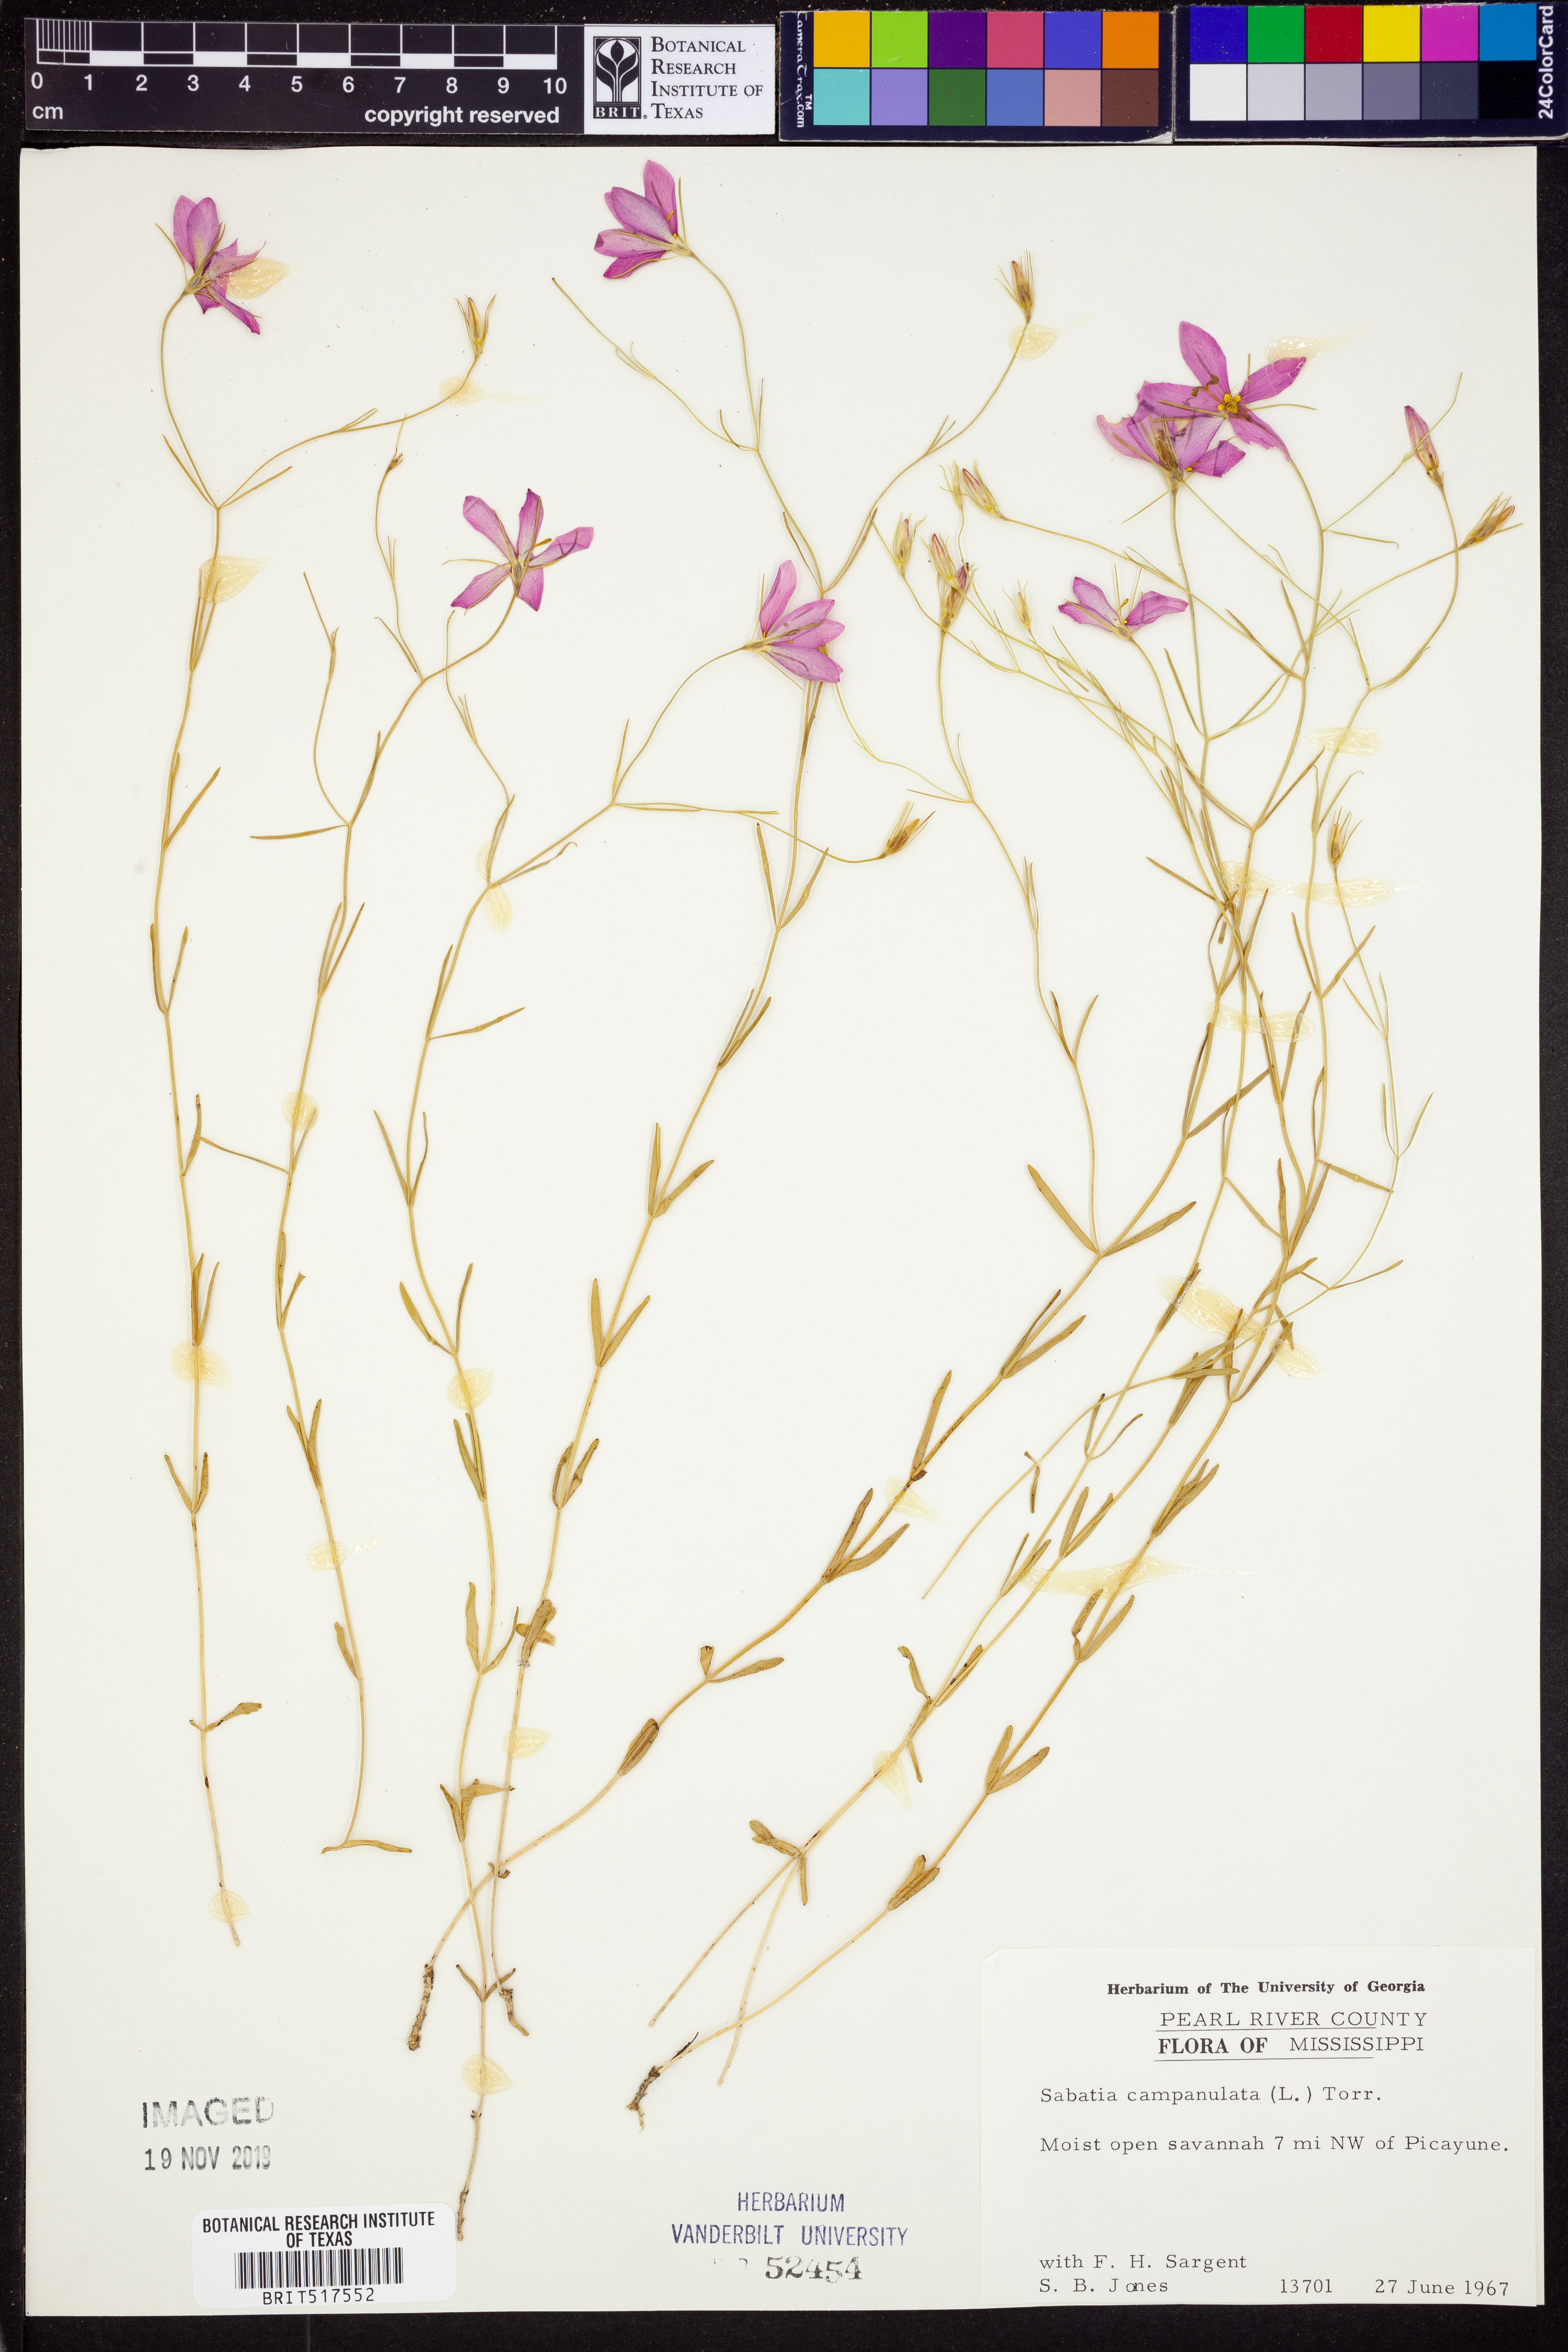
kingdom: Plantae
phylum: Tracheophyta
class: Magnoliopsida
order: Gentianales
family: Gentianaceae
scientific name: Gentianaceae
